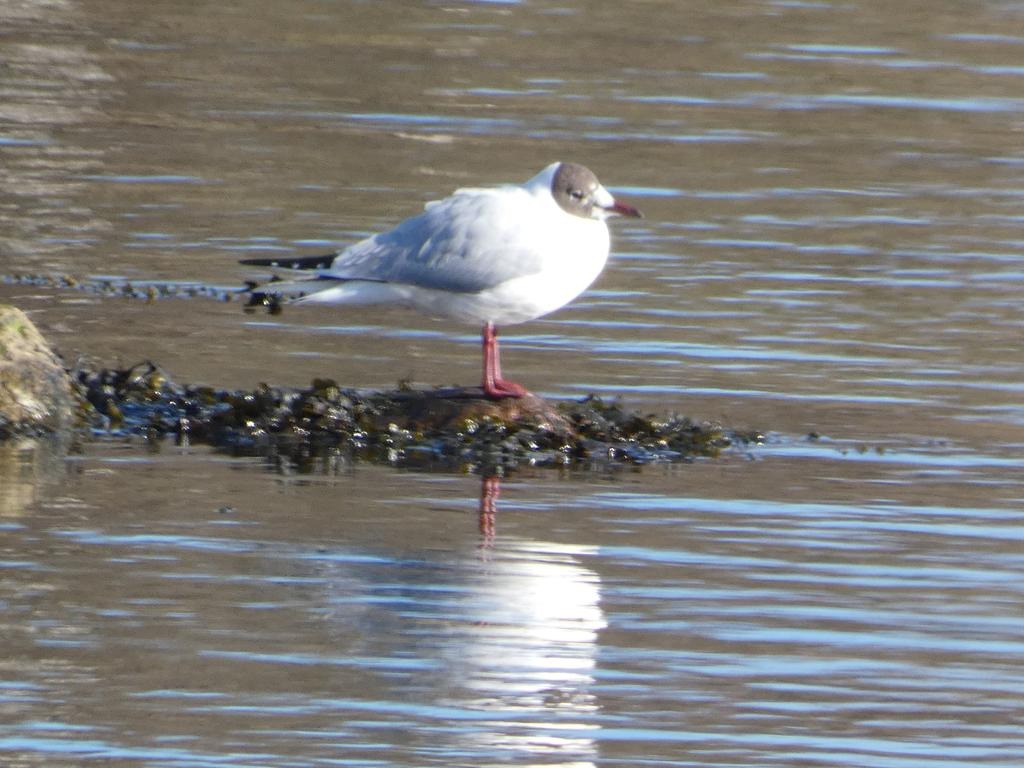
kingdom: Animalia
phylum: Chordata
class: Aves
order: Charadriiformes
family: Laridae
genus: Chroicocephalus
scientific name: Chroicocephalus ridibundus
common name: Hættemåge
